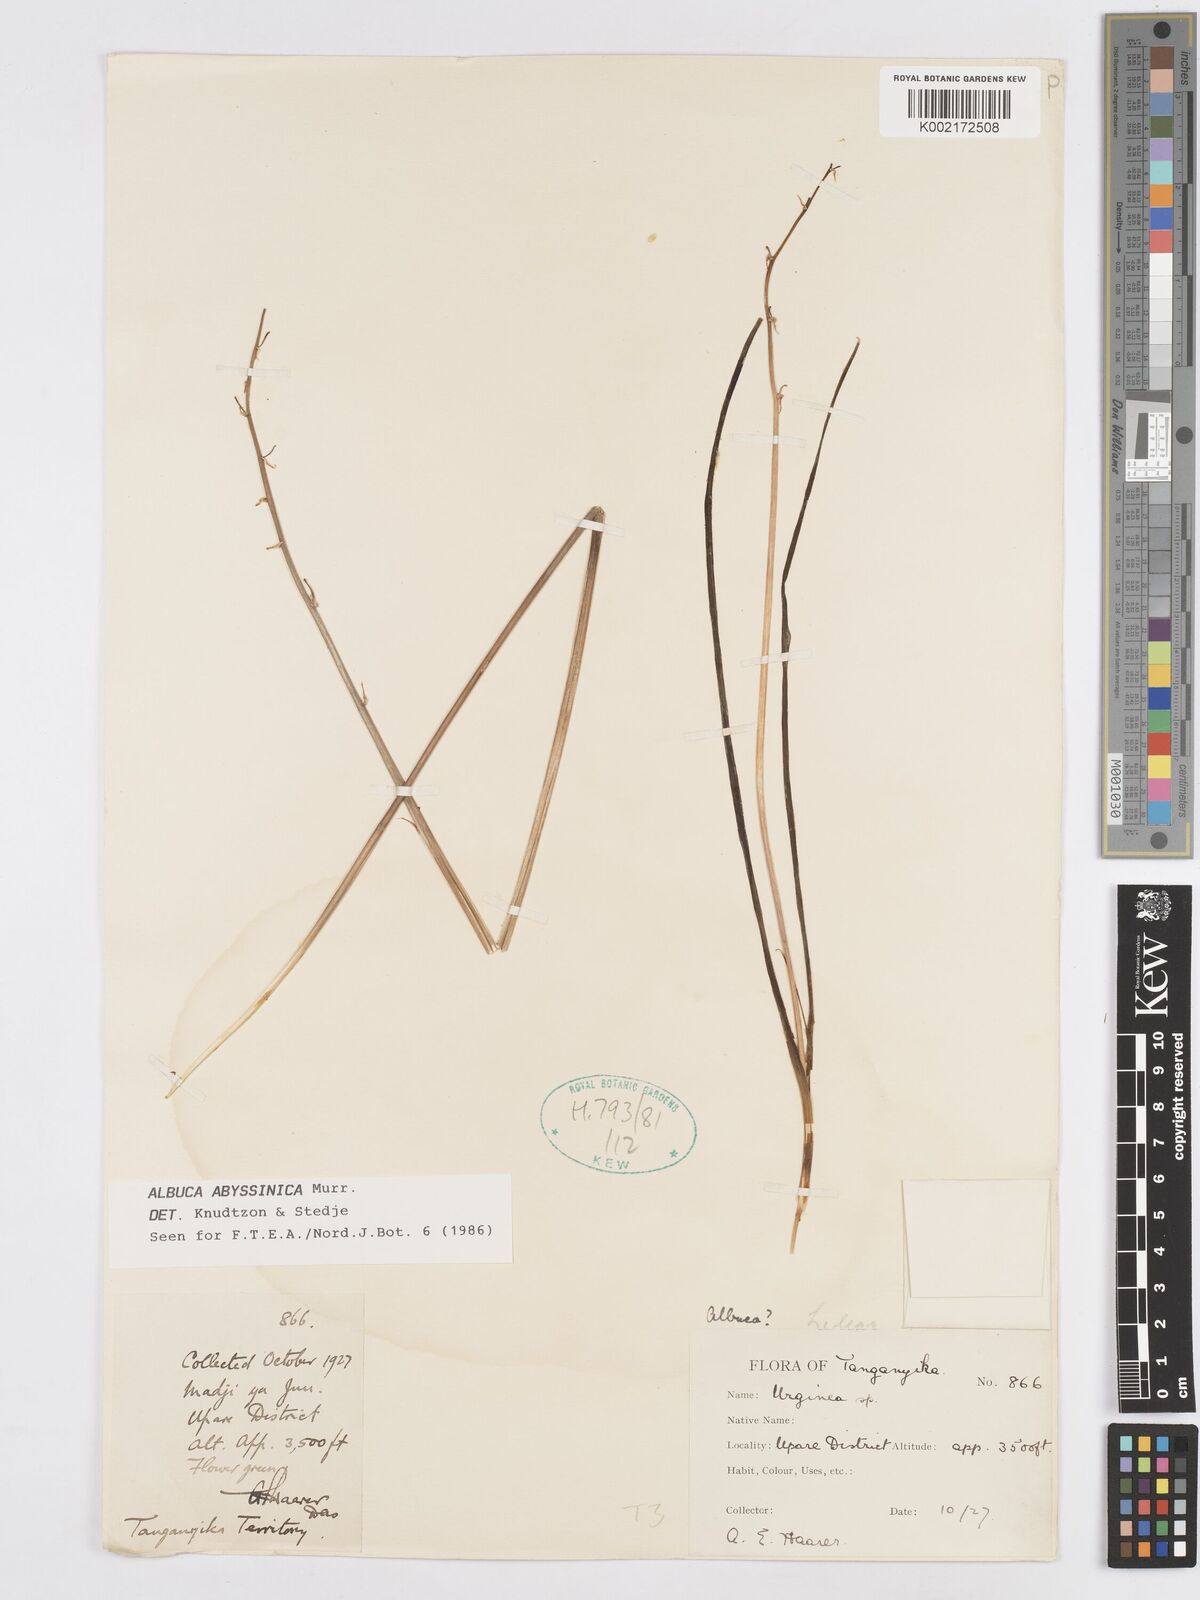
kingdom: Plantae
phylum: Tracheophyta
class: Liliopsida
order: Asparagales
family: Asparagaceae
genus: Albuca
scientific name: Albuca abyssinica
